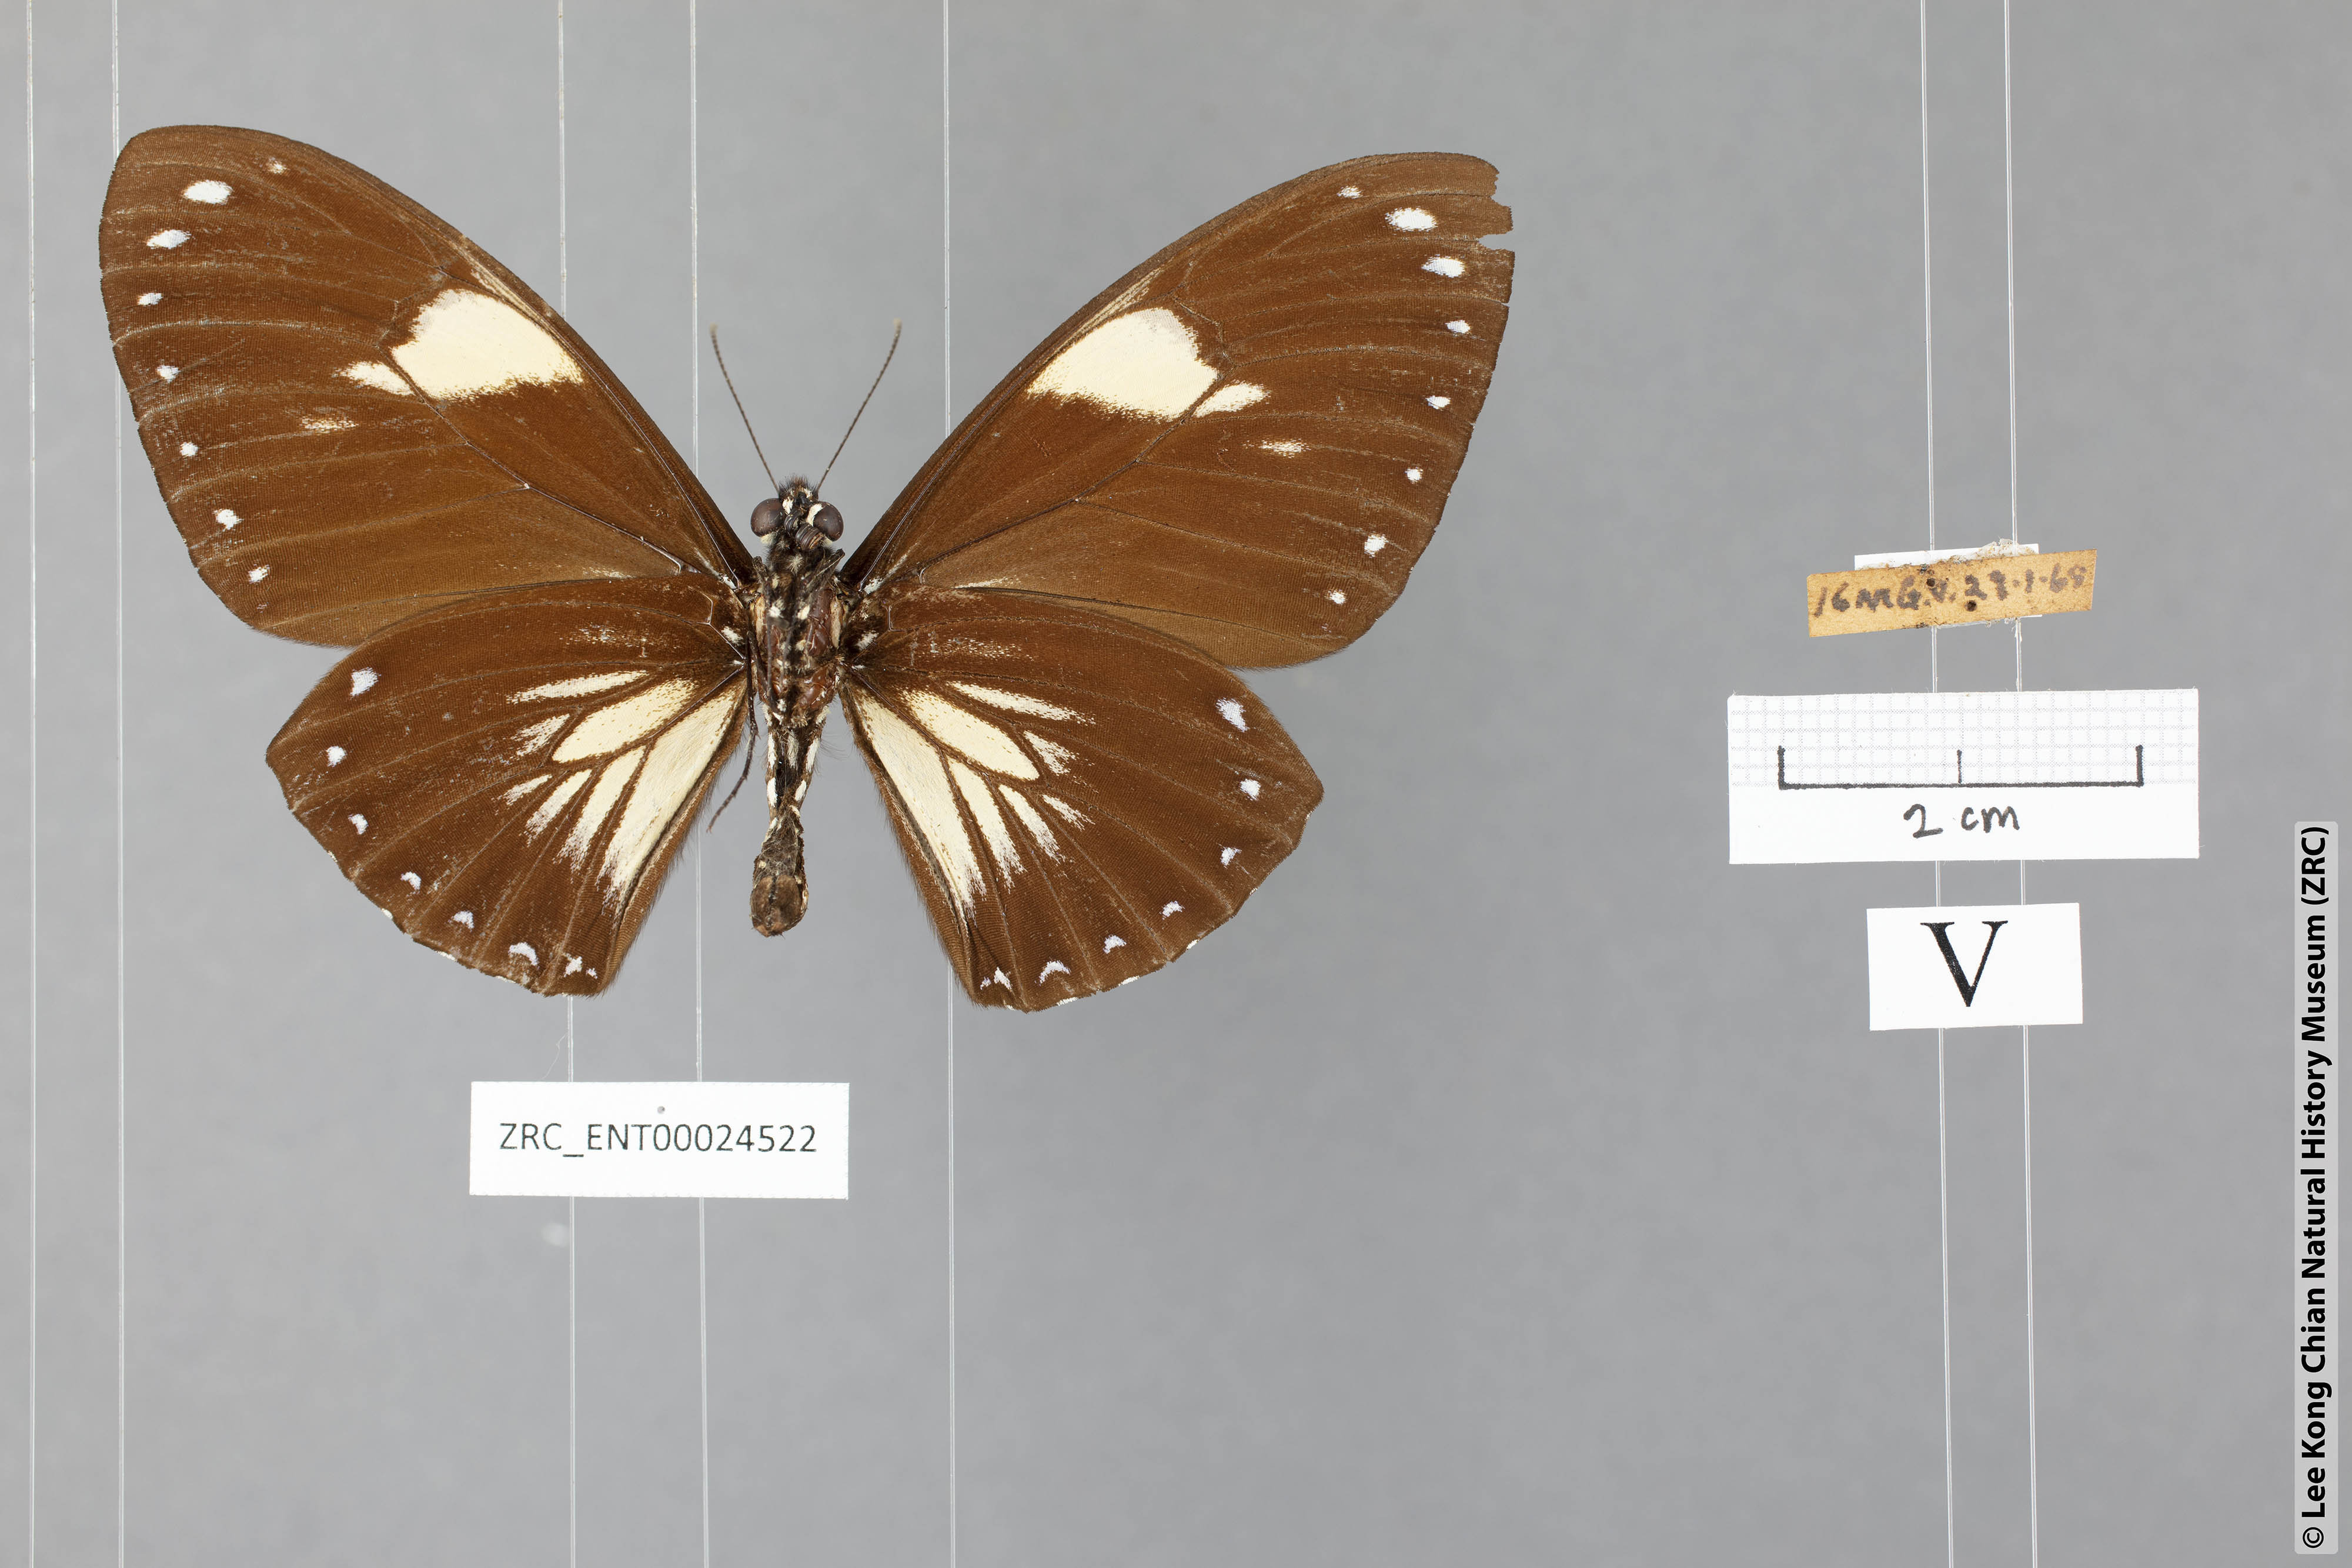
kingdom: Animalia
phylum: Arthropoda
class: Insecta
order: Lepidoptera
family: Papilionidae
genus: Chilasa
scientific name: Chilasa paradoxa
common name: Great mime
